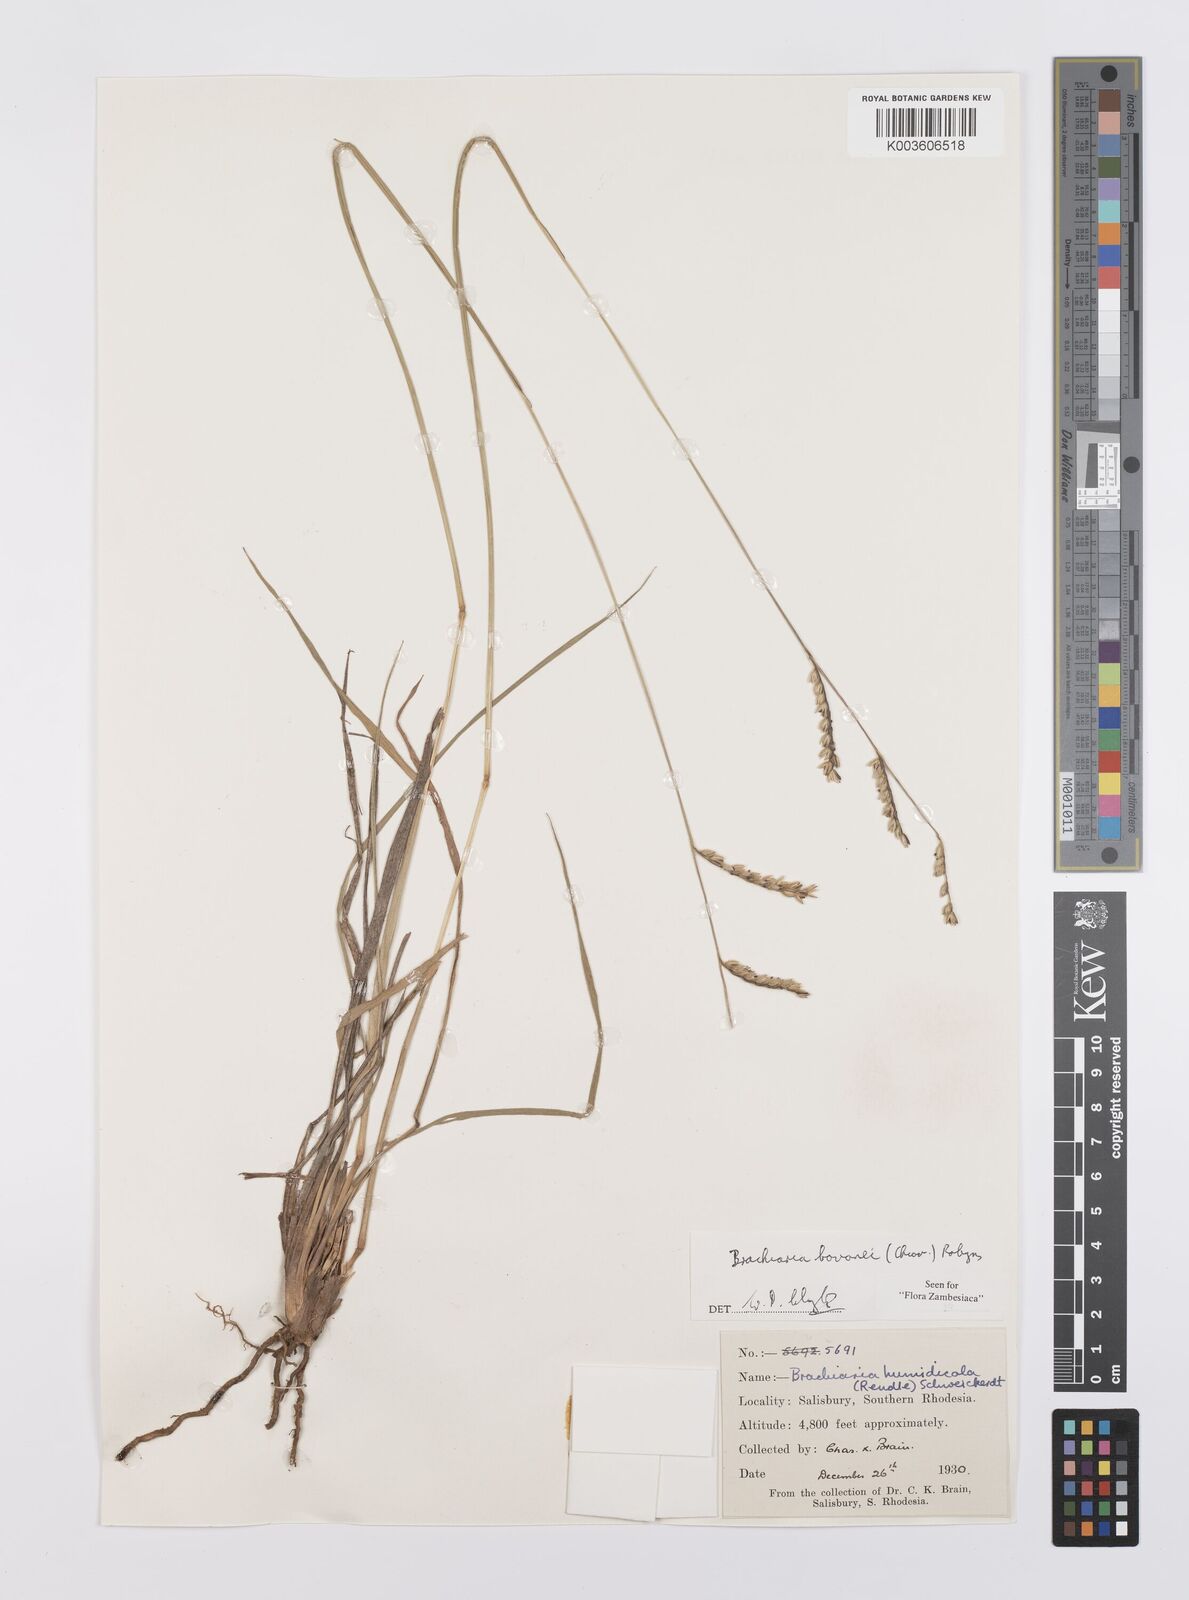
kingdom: Plantae
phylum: Tracheophyta
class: Liliopsida
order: Poales
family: Poaceae
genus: Urochloa
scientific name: Urochloa bovonei
